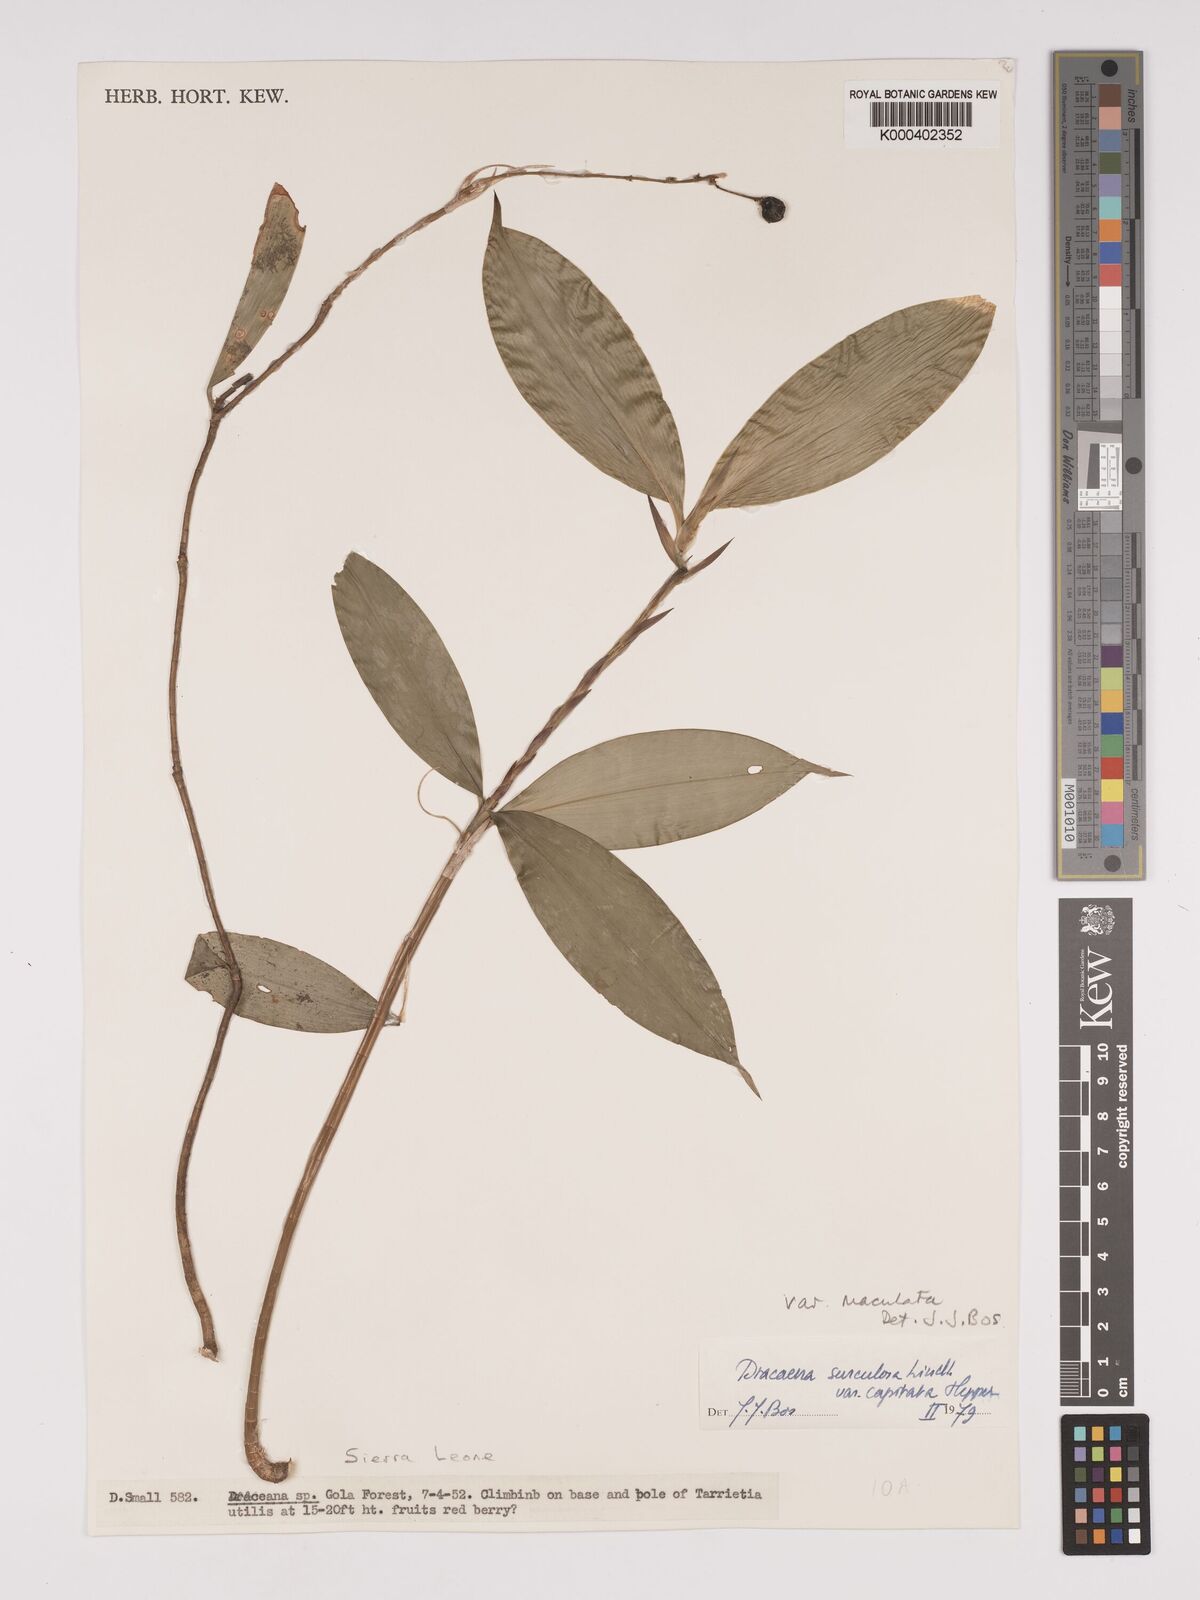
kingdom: Plantae
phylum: Tracheophyta
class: Liliopsida
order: Asparagales
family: Asparagaceae
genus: Dracaena
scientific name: Dracaena surculosa
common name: Spotted dracaena
